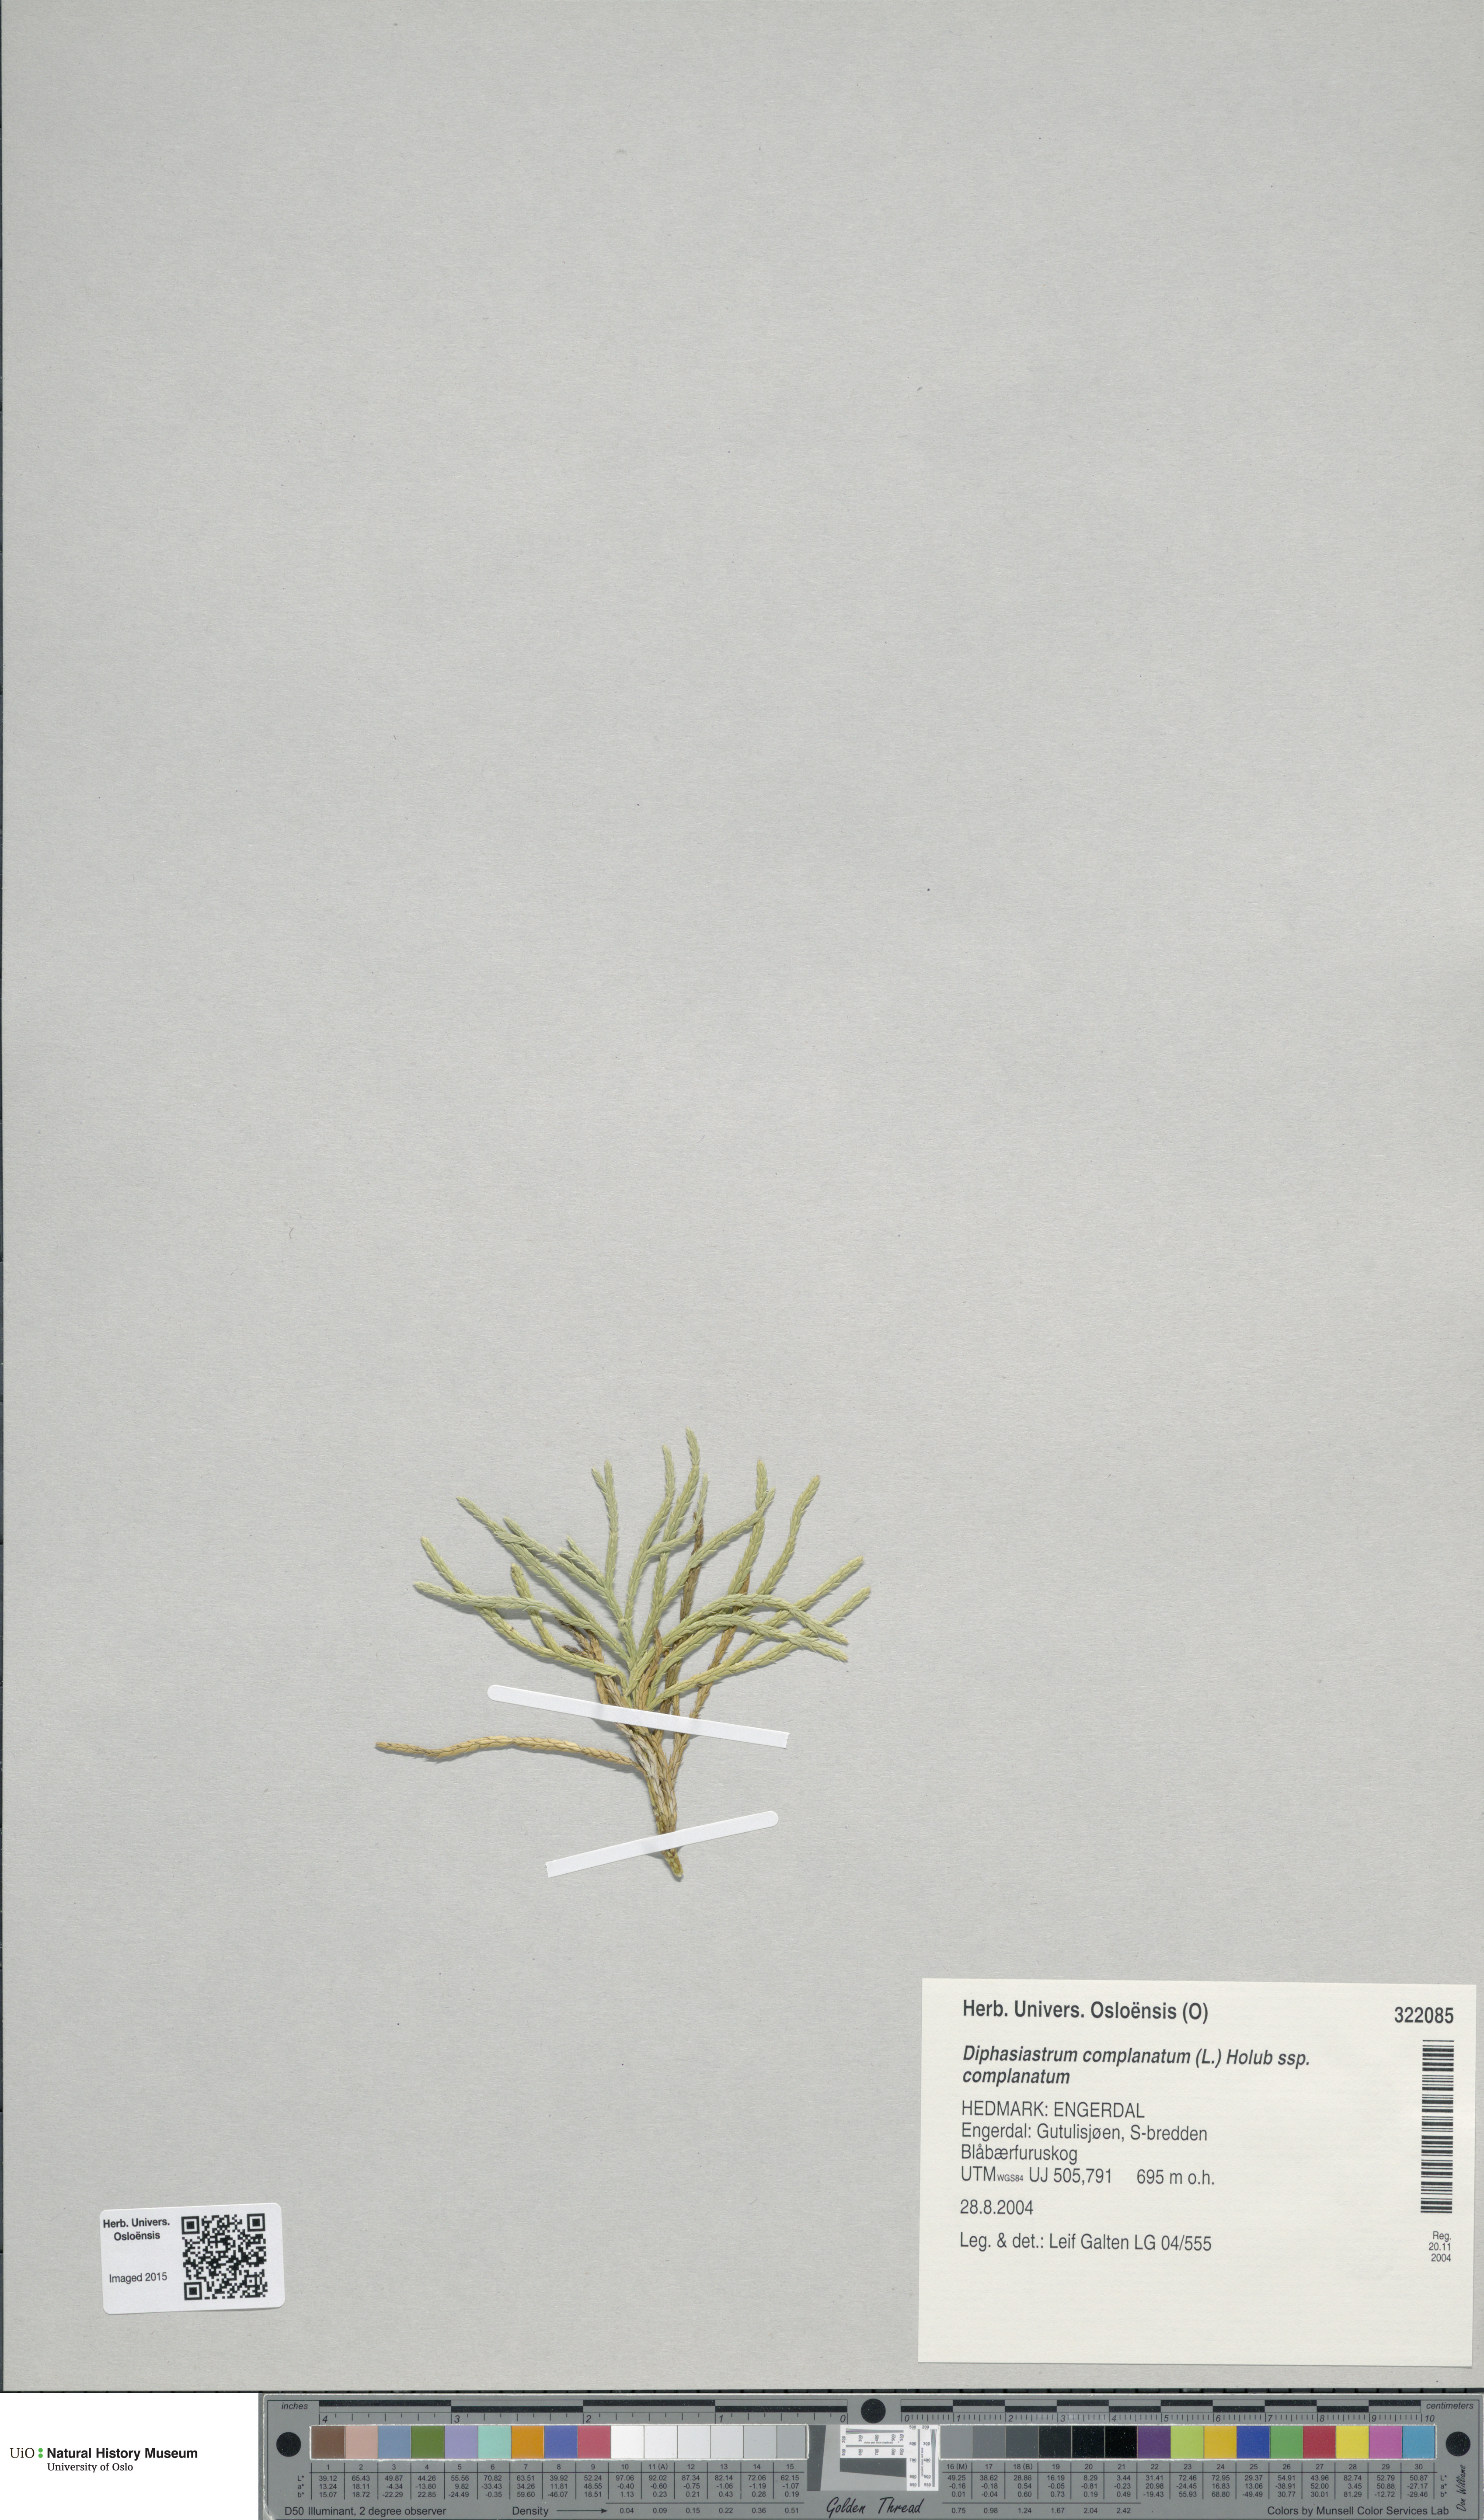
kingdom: Plantae
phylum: Tracheophyta
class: Lycopodiopsida
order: Lycopodiales
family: Lycopodiaceae
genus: Diphasiastrum
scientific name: Diphasiastrum complanatum
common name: Northern running-pine
